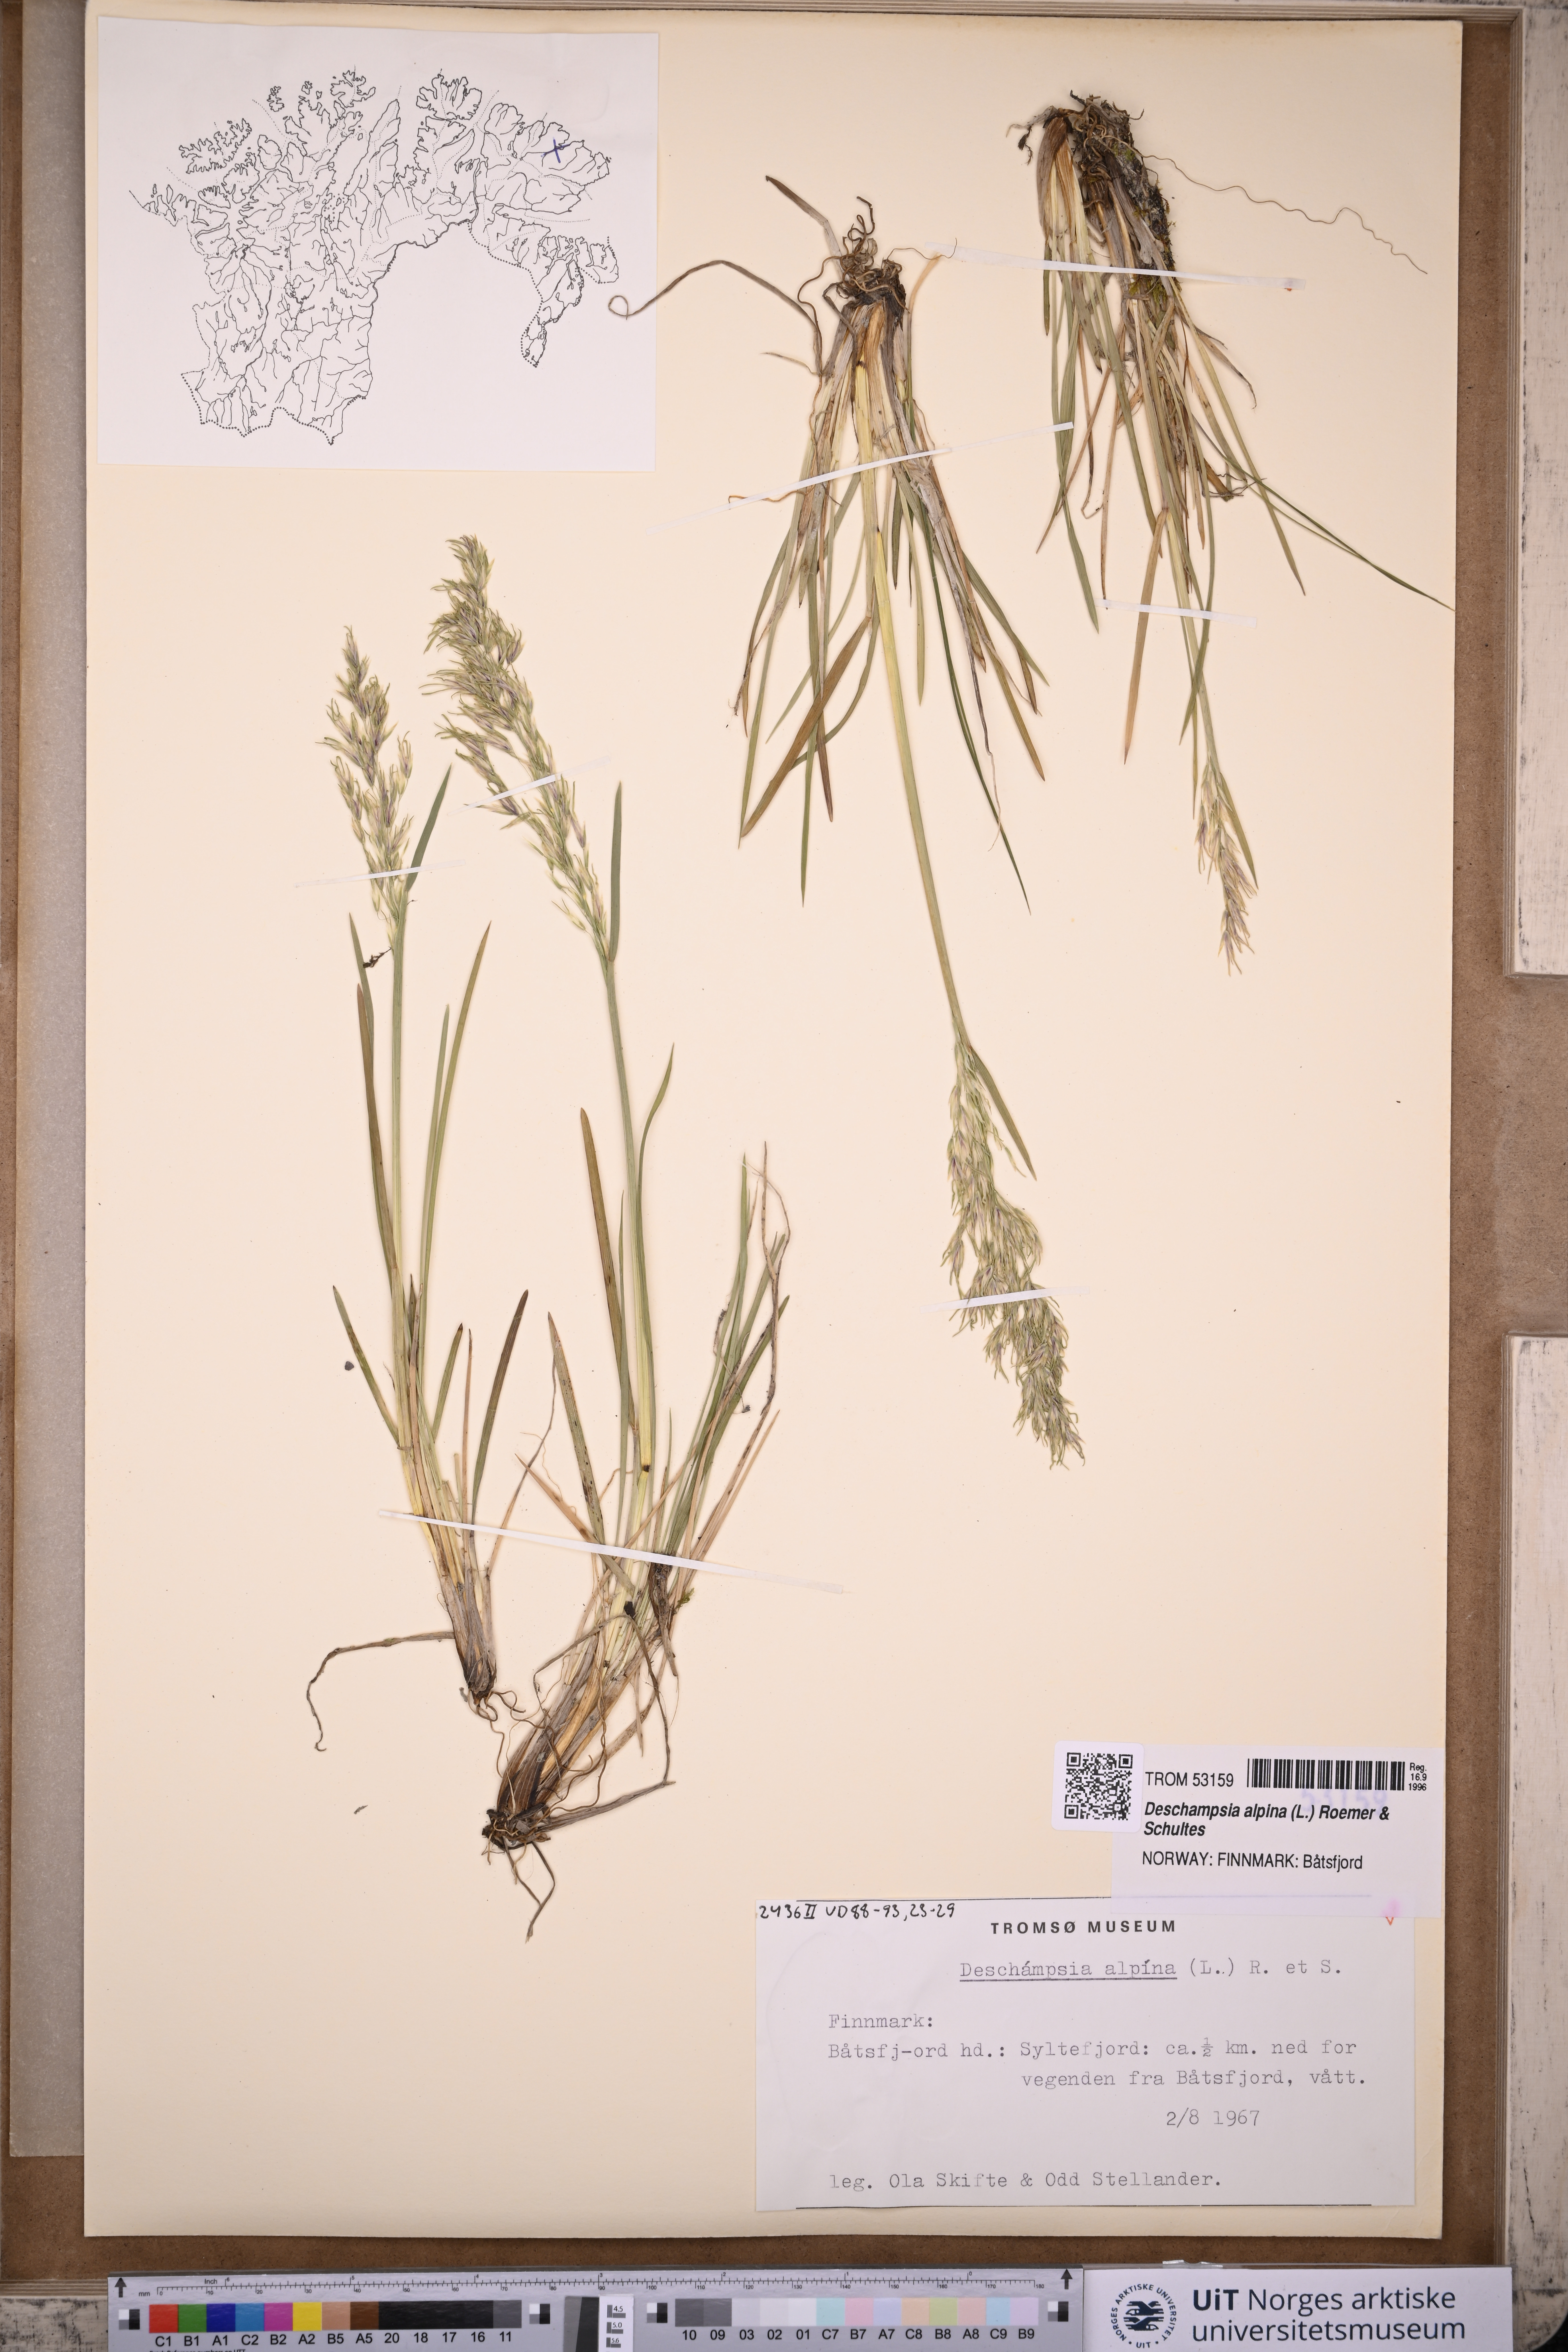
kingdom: Plantae
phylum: Tracheophyta
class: Liliopsida
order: Poales
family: Poaceae
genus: Deschampsia
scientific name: Deschampsia cespitosa
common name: Tufted hair-grass
